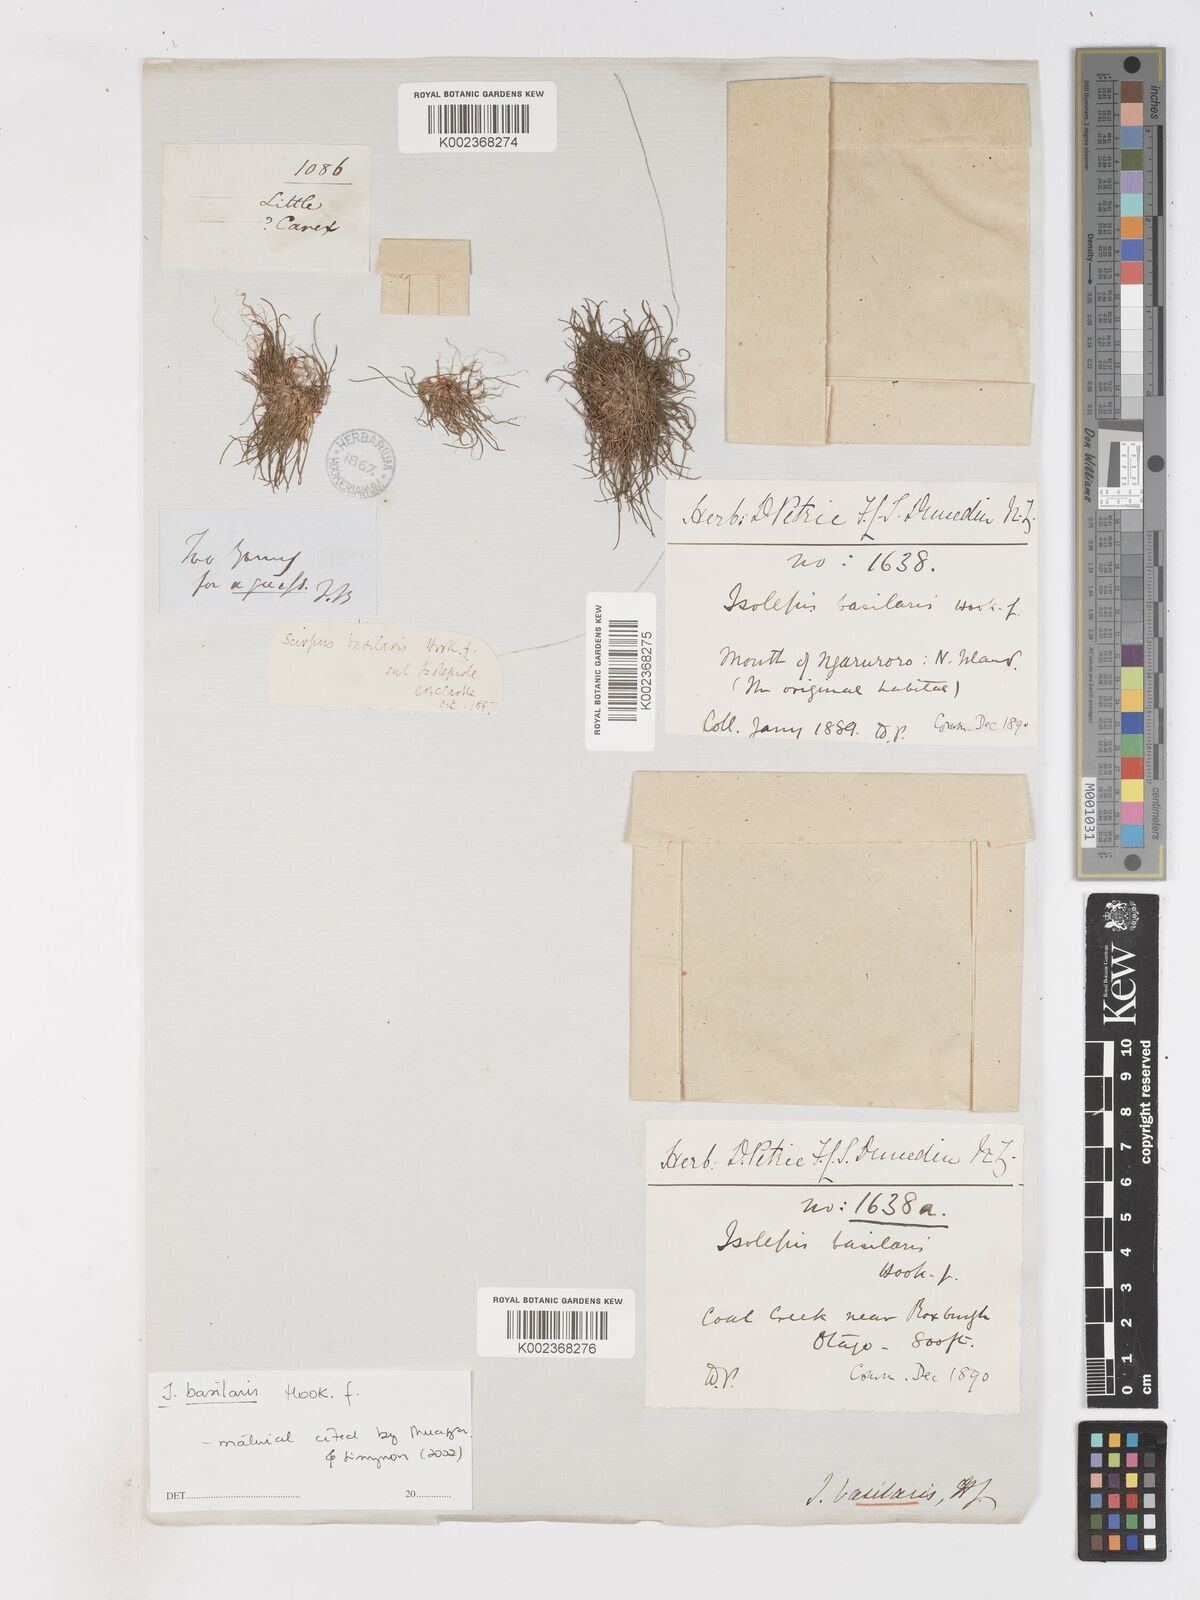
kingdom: Plantae
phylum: Tracheophyta
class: Liliopsida
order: Poales
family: Cyperaceae
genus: Isolepis
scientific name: Isolepis basilaris
